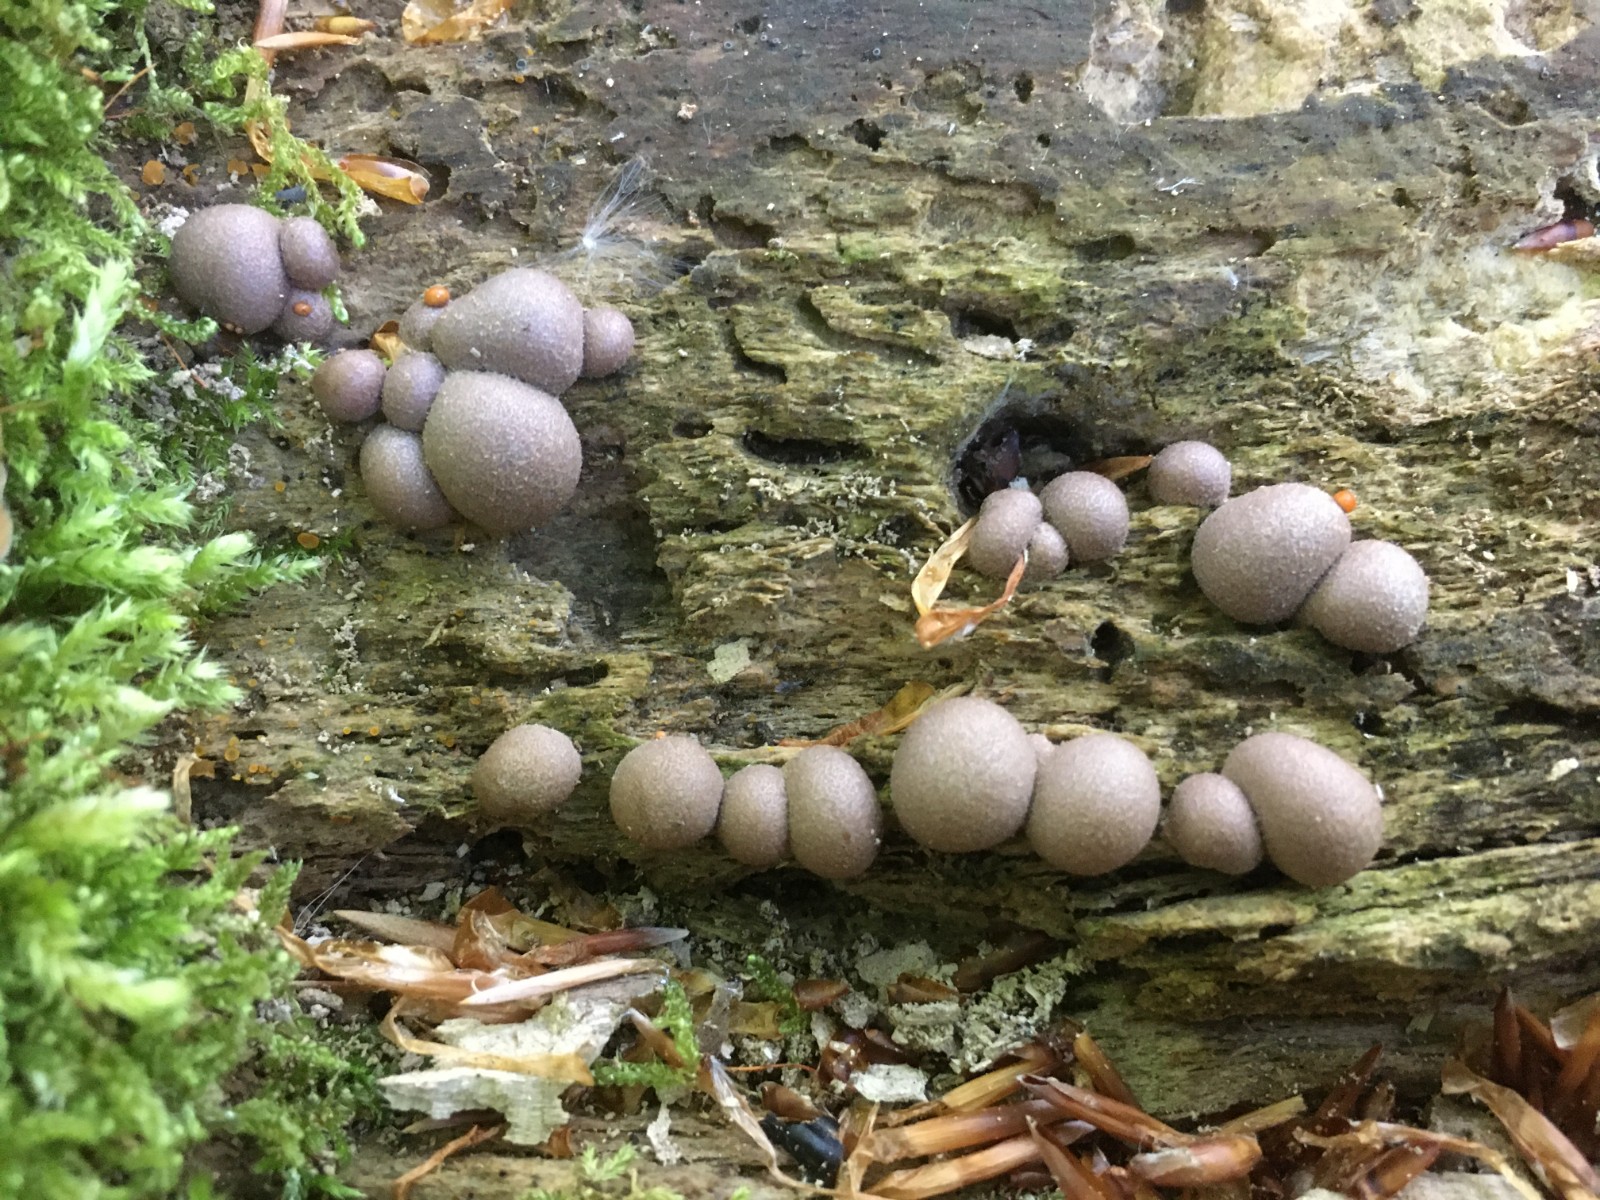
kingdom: Protozoa
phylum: Mycetozoa
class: Myxomycetes
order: Cribrariales
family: Tubiferaceae
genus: Lycogala
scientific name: Lycogala epidendrum
